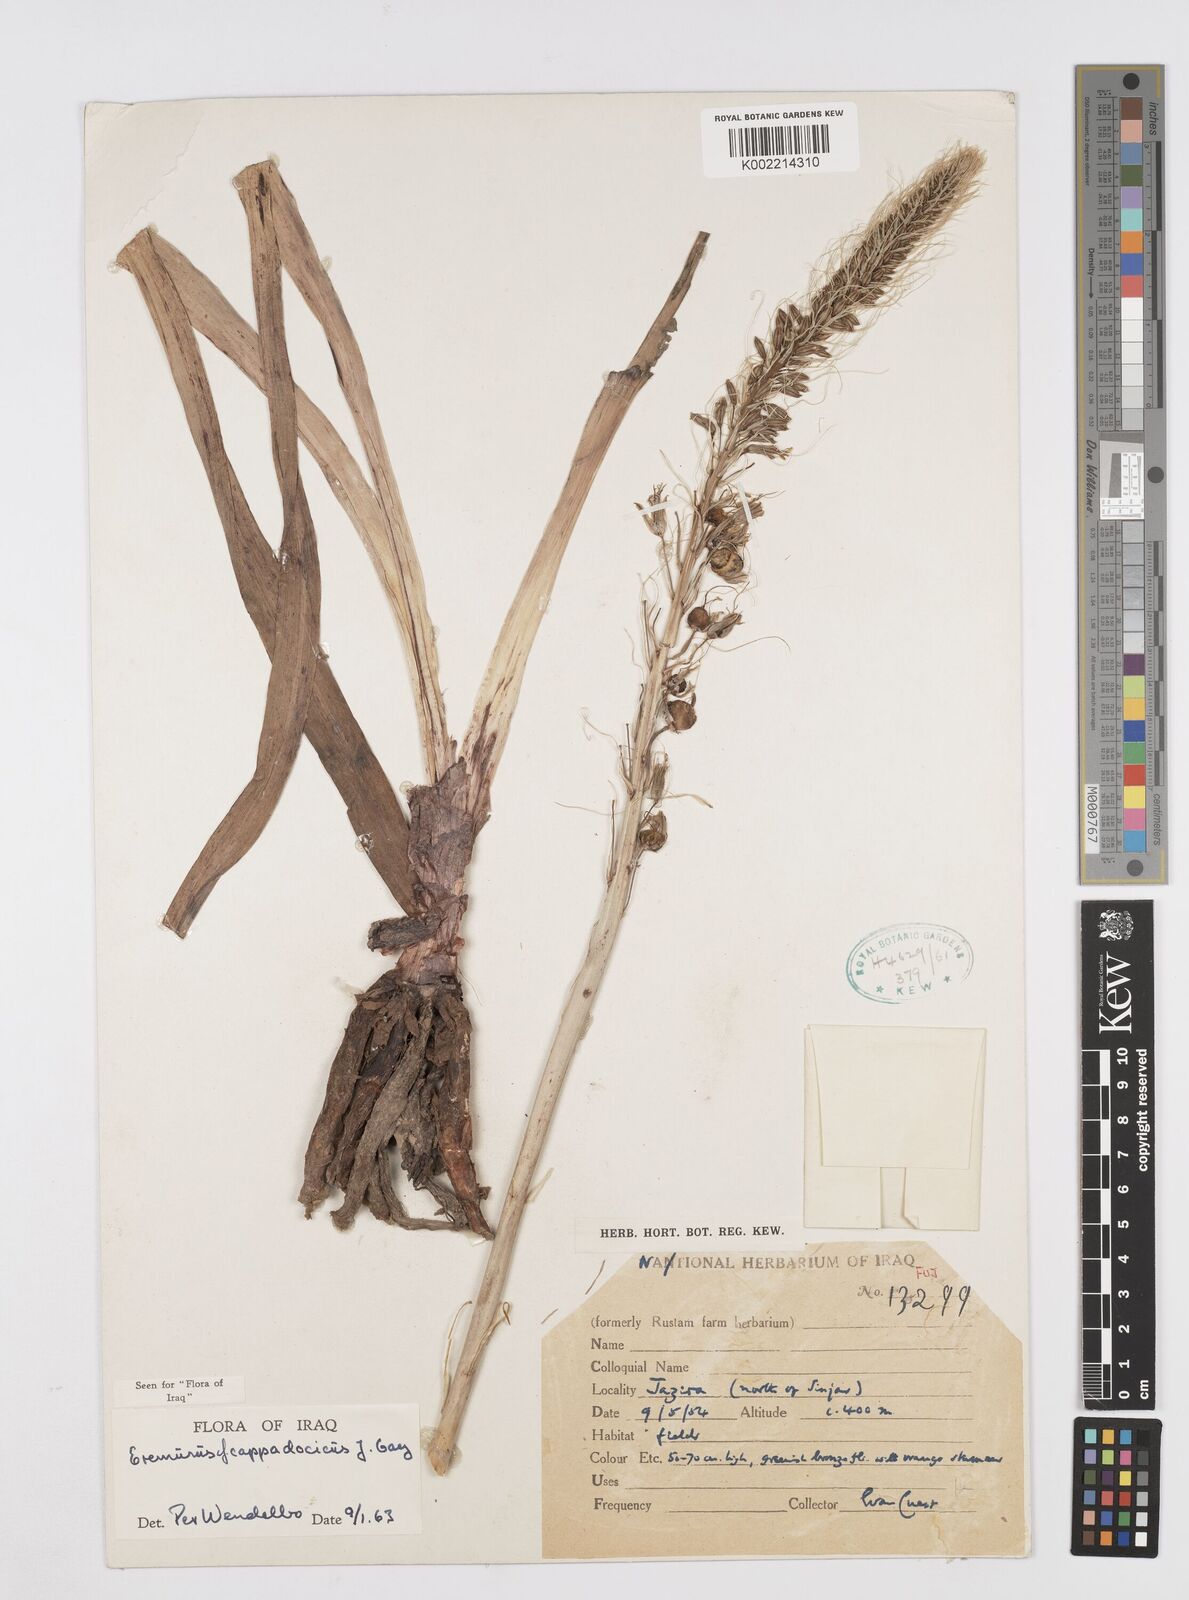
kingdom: Plantae
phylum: Tracheophyta
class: Liliopsida
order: Asparagales
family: Asphodelaceae
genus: Eremurus
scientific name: Eremurus cappadocicus
